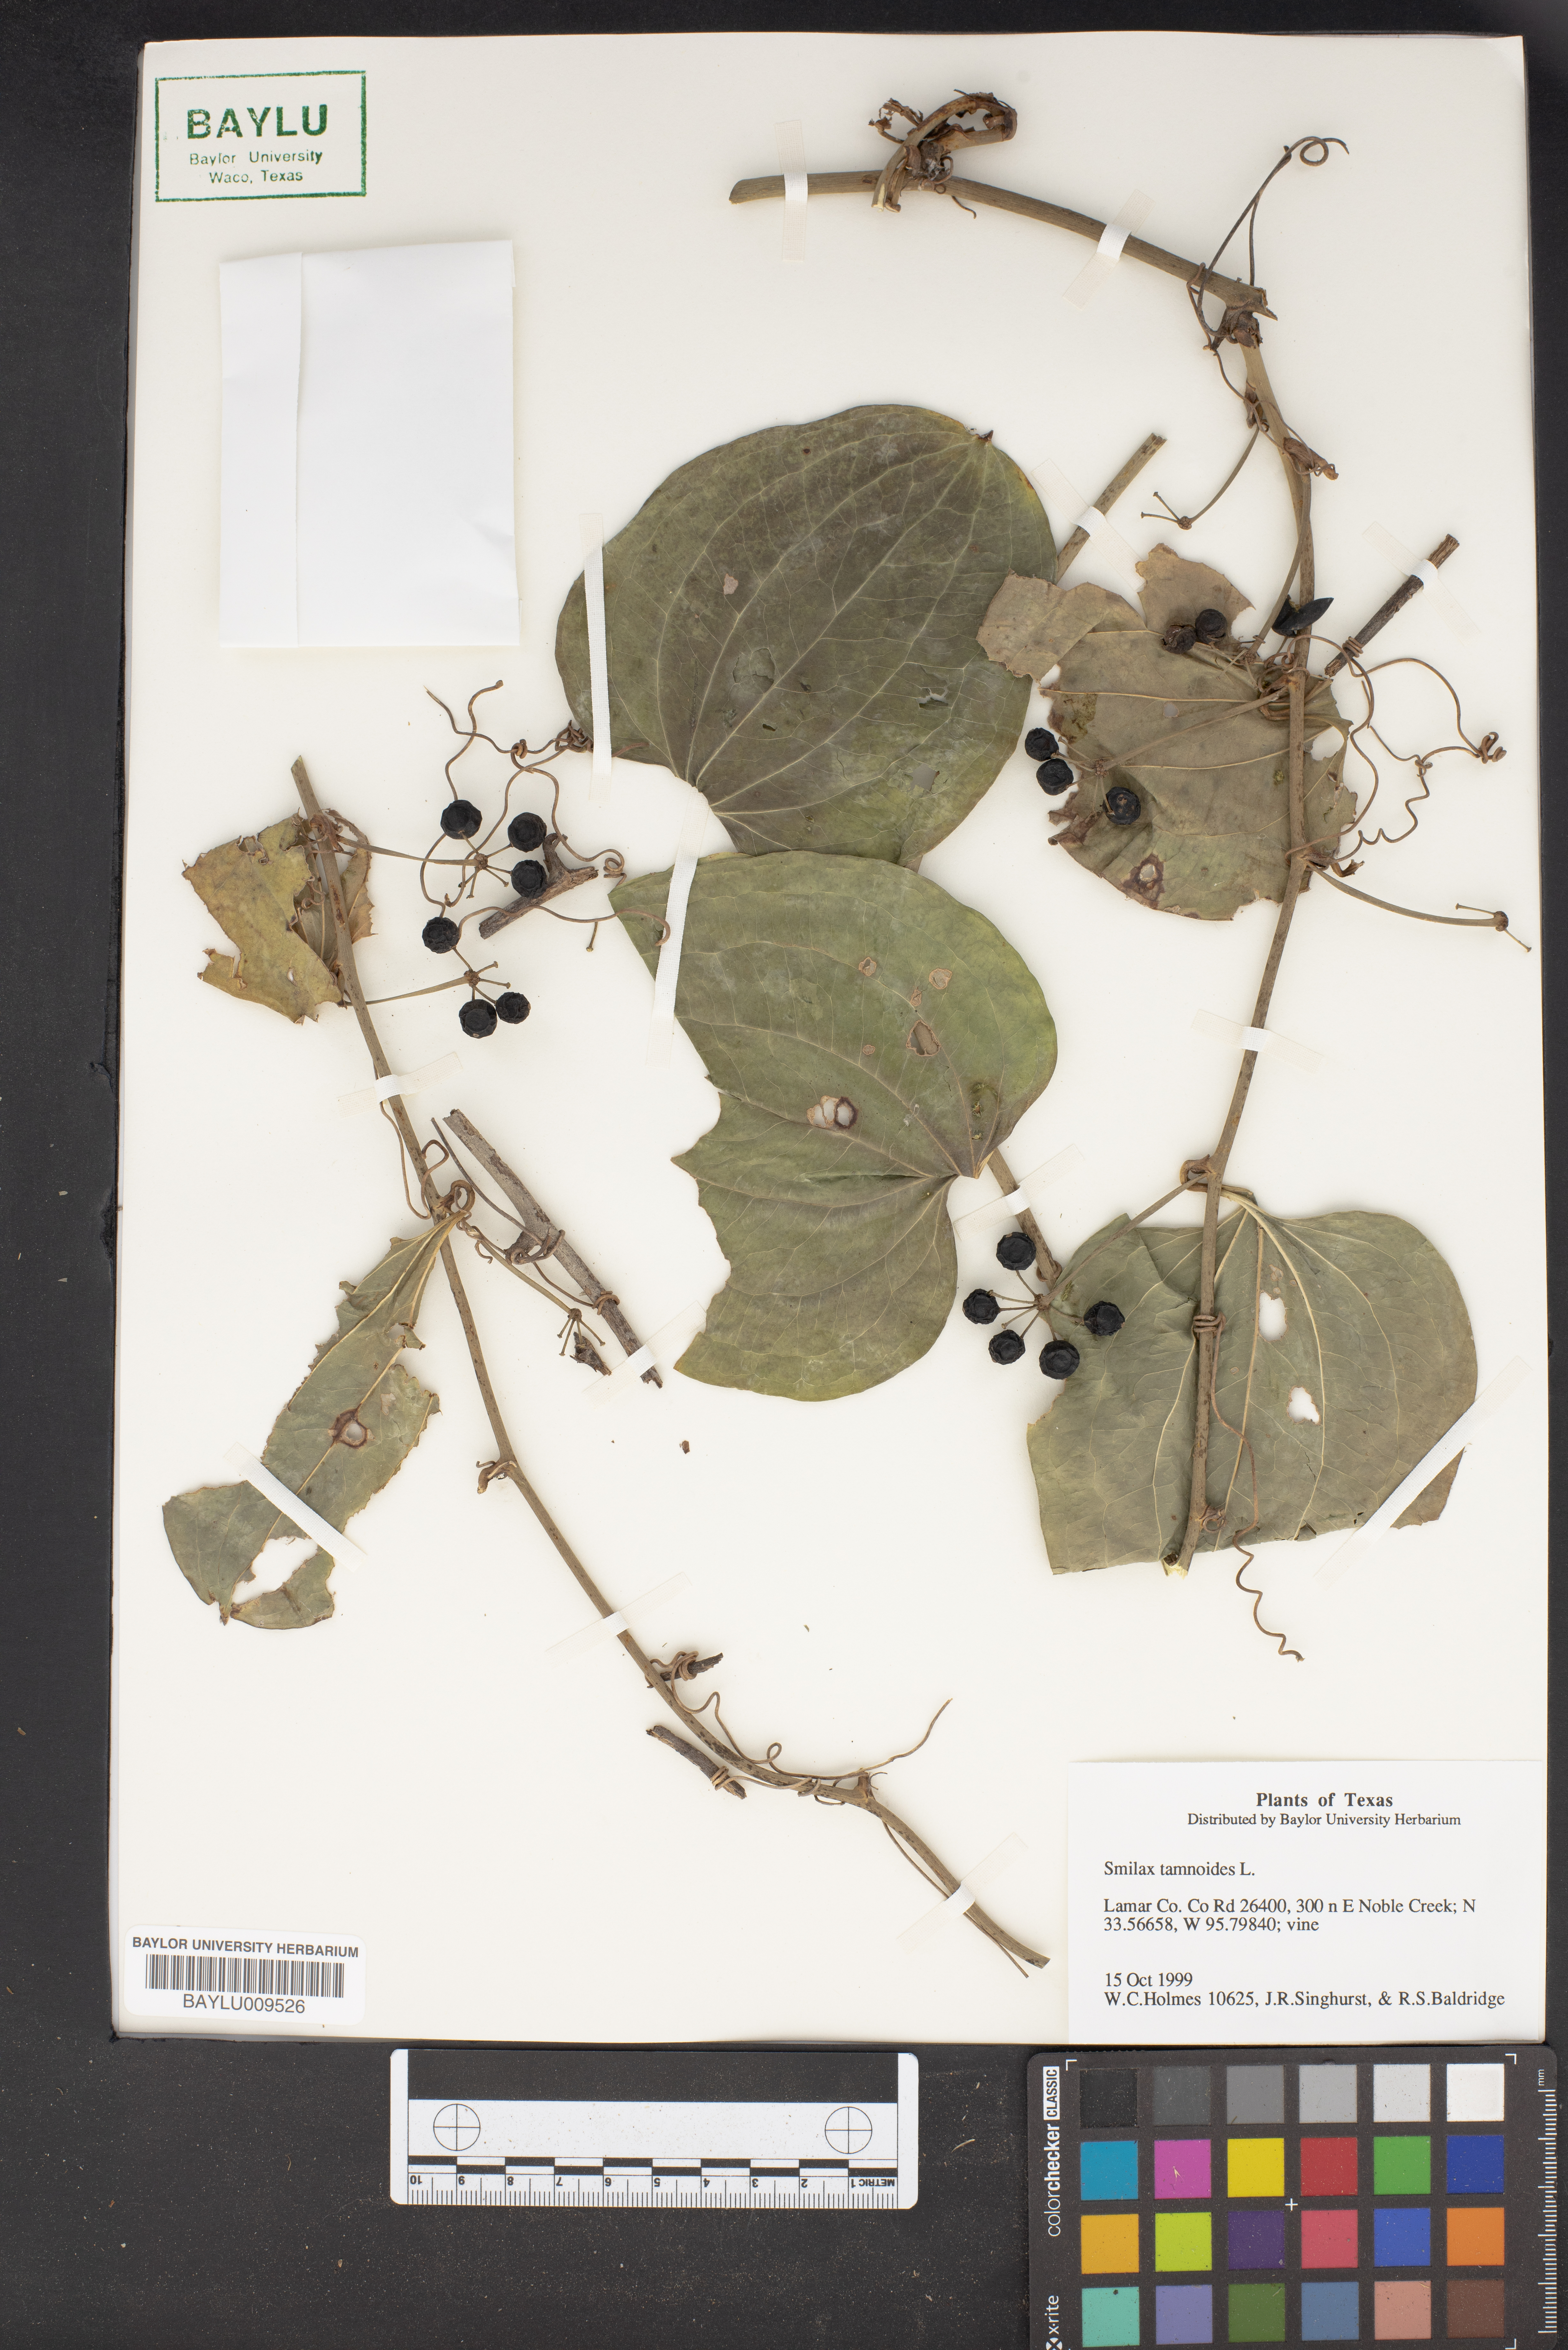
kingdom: Plantae
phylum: Tracheophyta
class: Liliopsida
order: Liliales
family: Smilacaceae
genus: Smilax
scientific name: Smilax tamnoides
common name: Hellfetter
